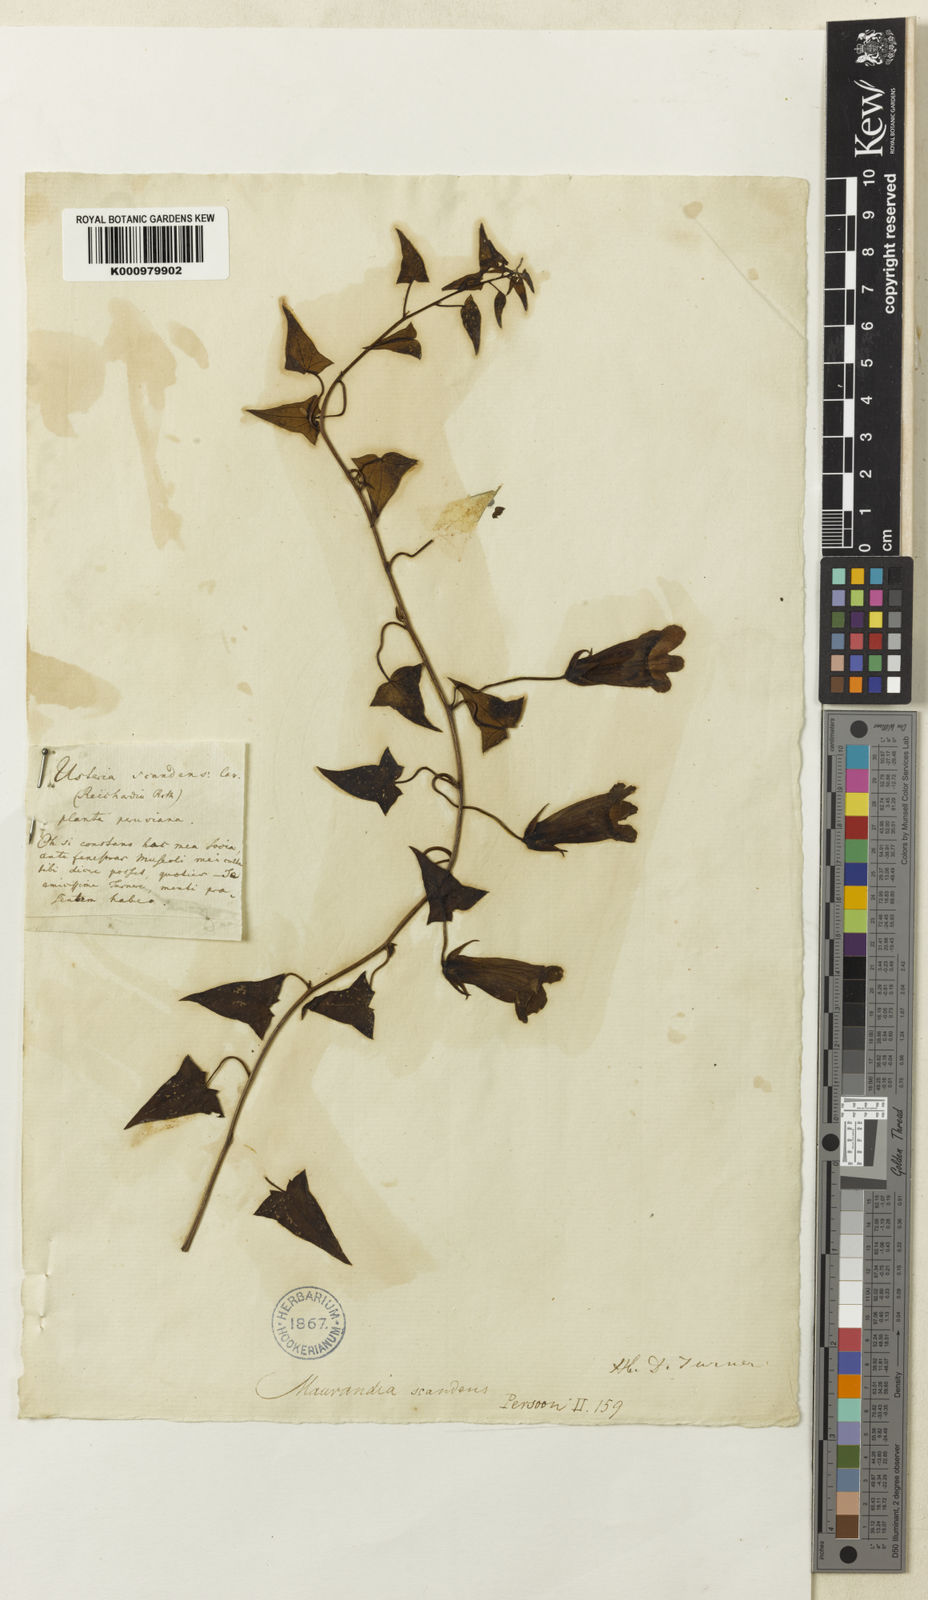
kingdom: Plantae
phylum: Tracheophyta
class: Magnoliopsida
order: Lamiales
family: Plantaginaceae
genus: Maurandya
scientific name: Maurandya
